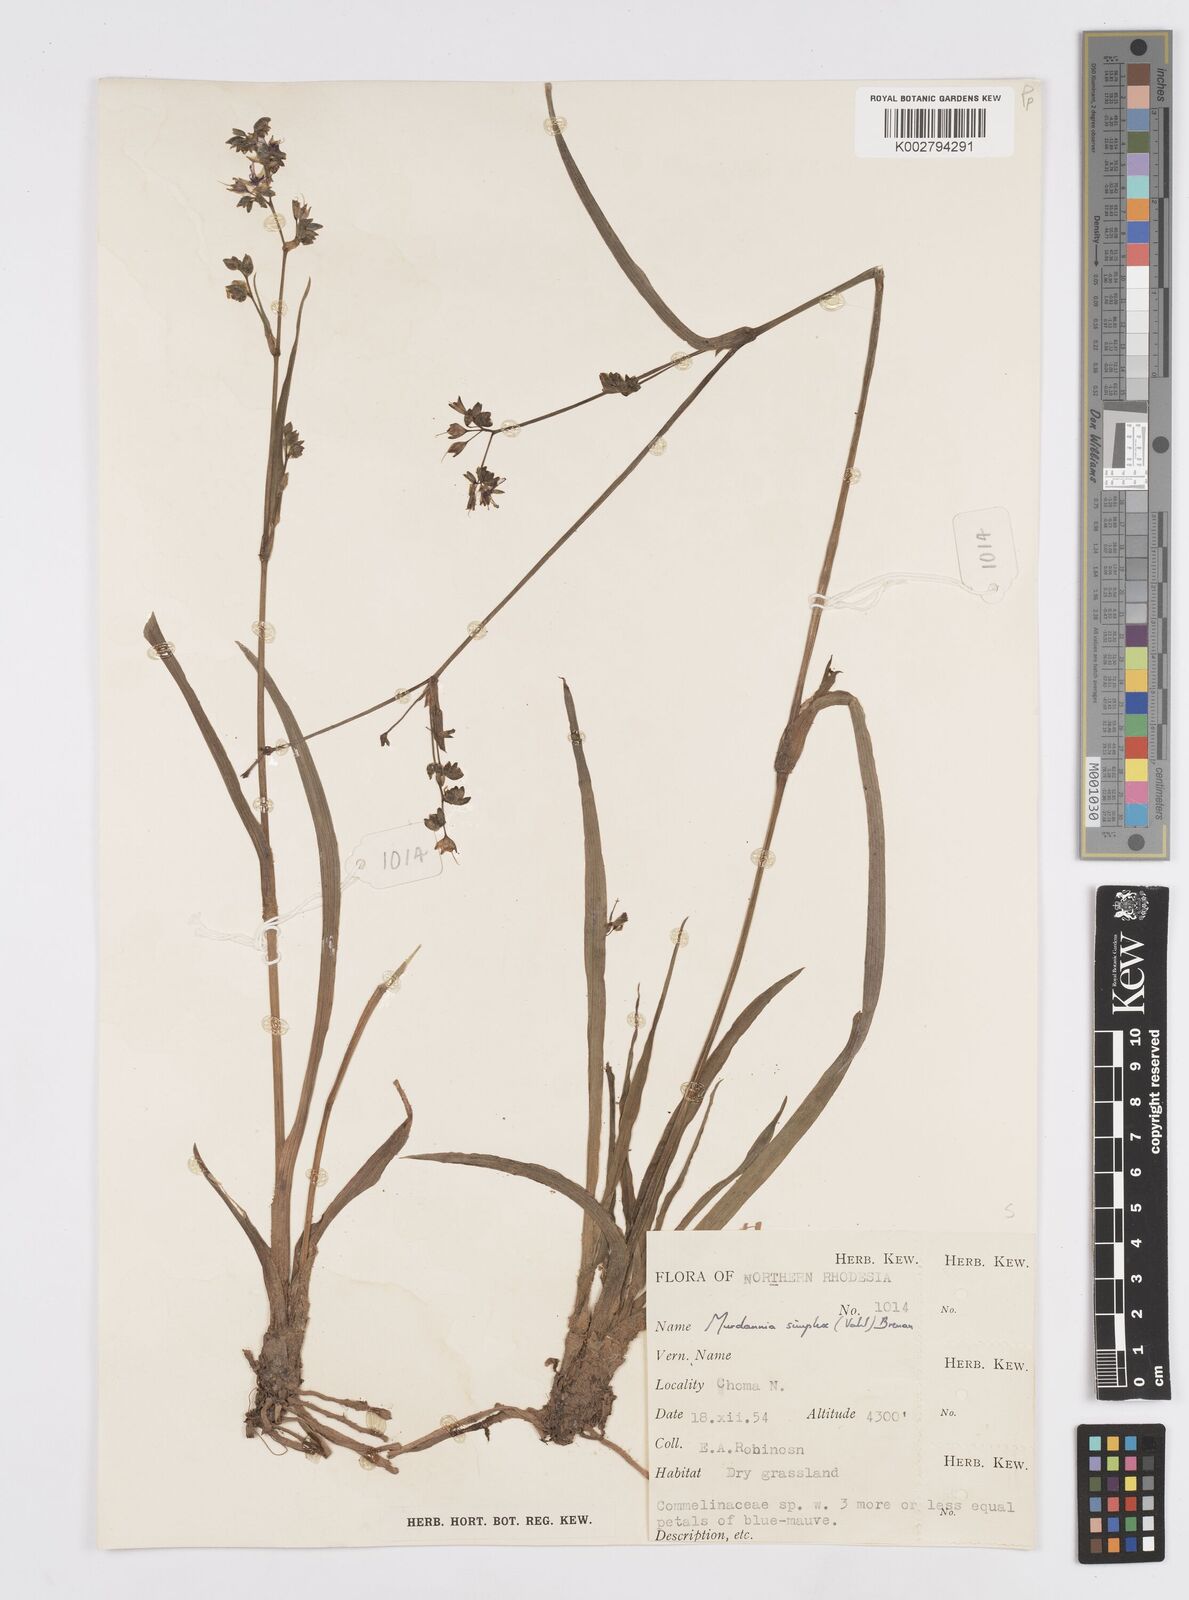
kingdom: Plantae
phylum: Tracheophyta
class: Liliopsida
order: Commelinales
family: Commelinaceae
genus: Murdannia
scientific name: Murdannia simplex
